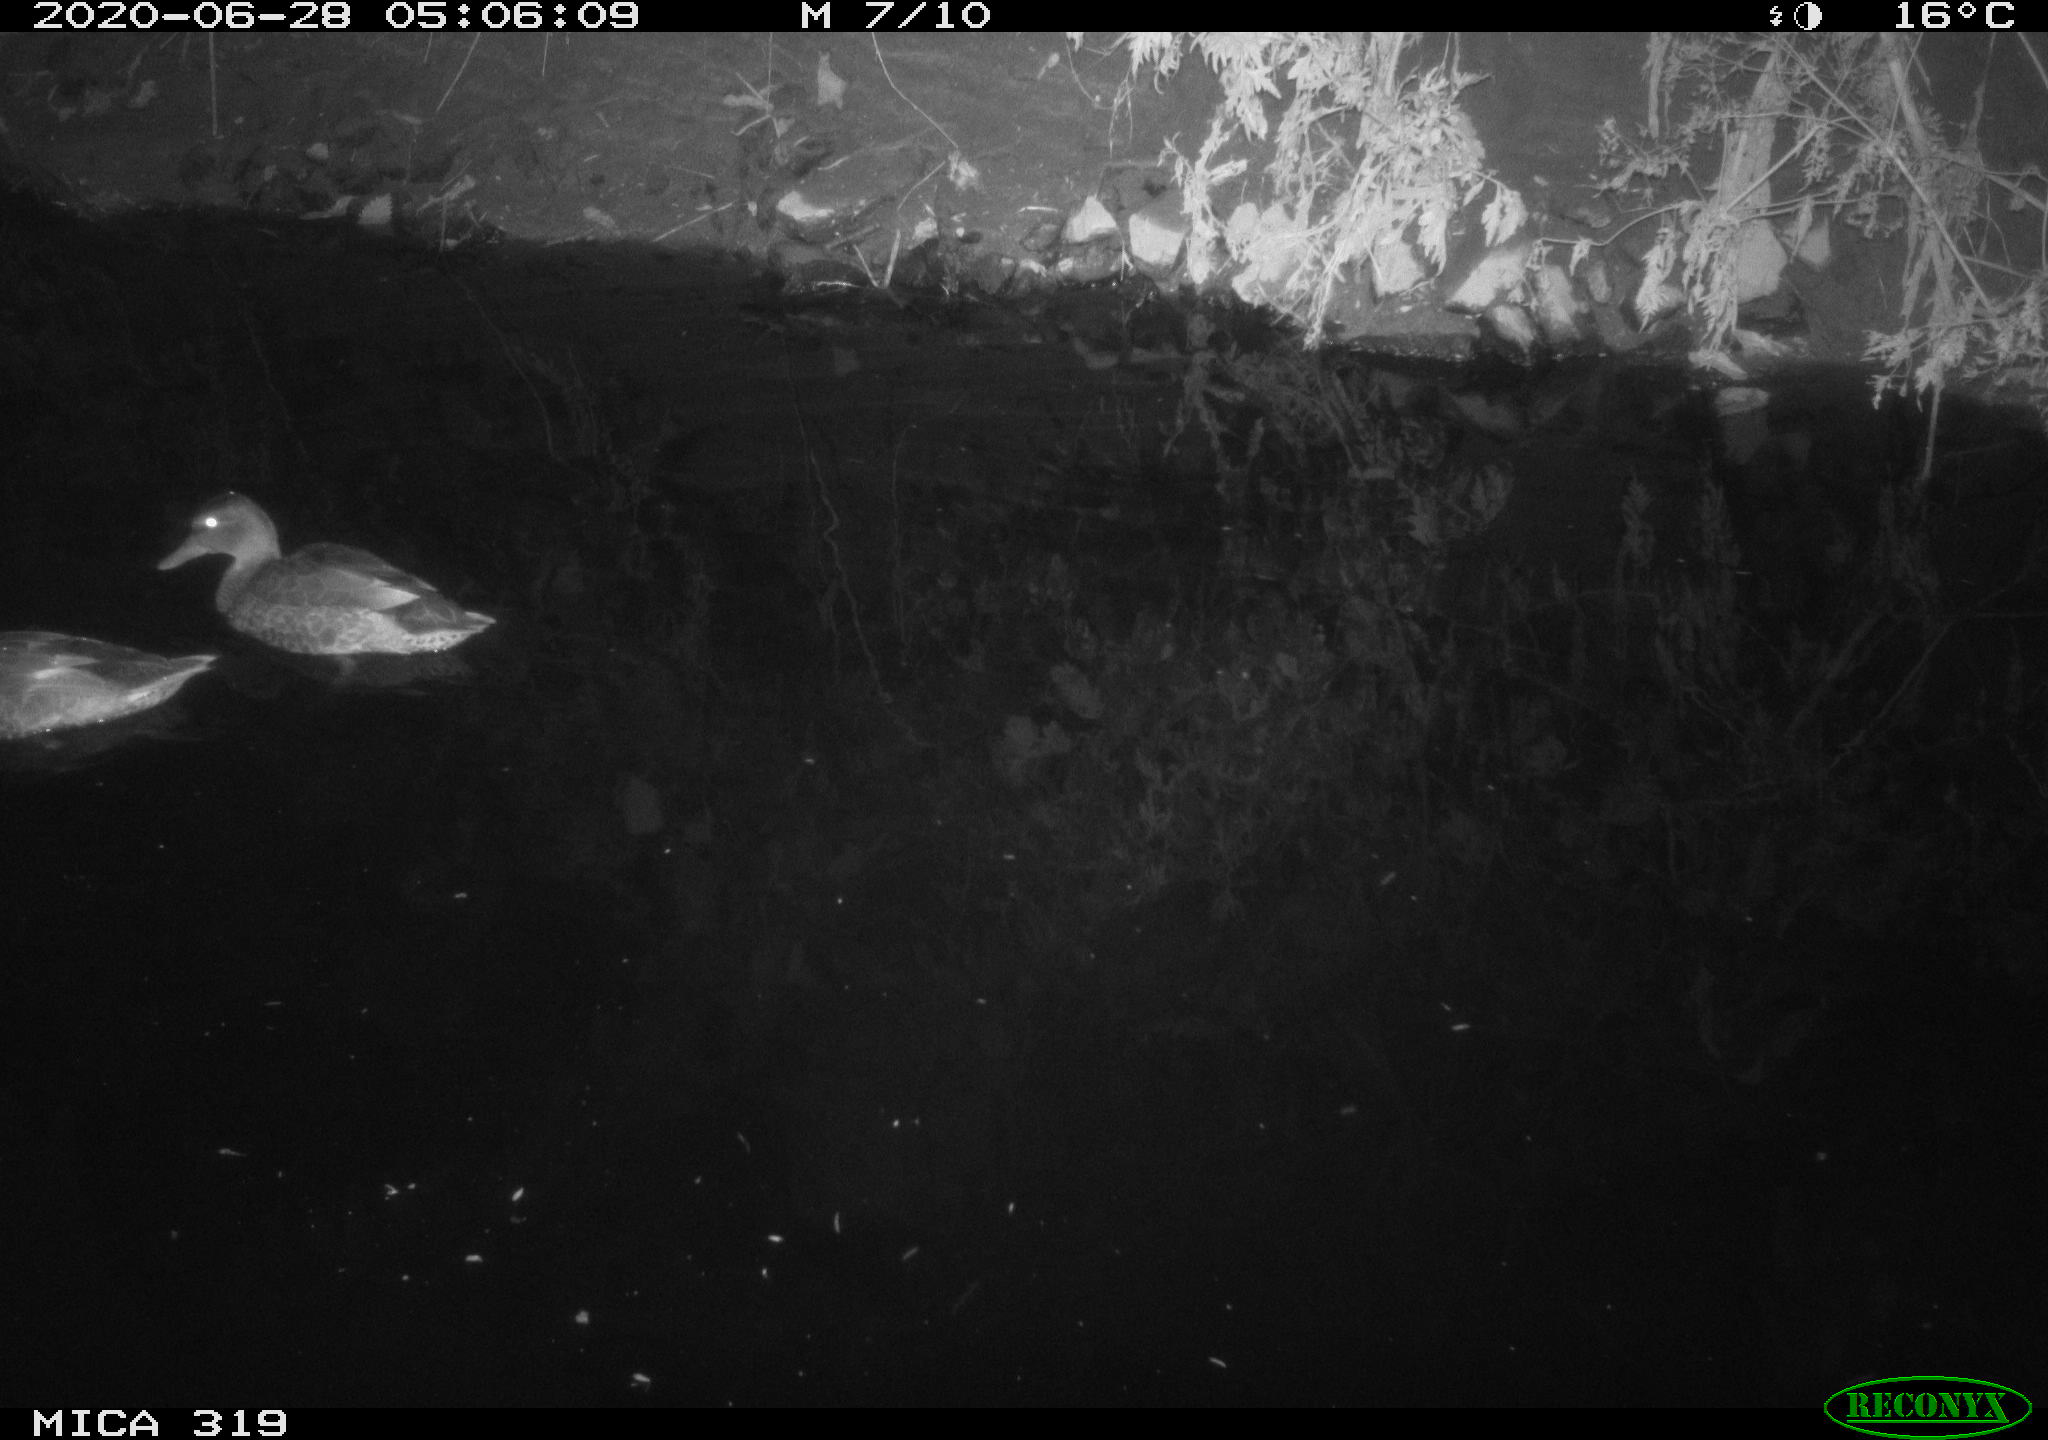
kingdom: Animalia
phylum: Chordata
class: Aves
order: Anseriformes
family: Anatidae
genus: Anas
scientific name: Anas platyrhynchos
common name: Mallard
